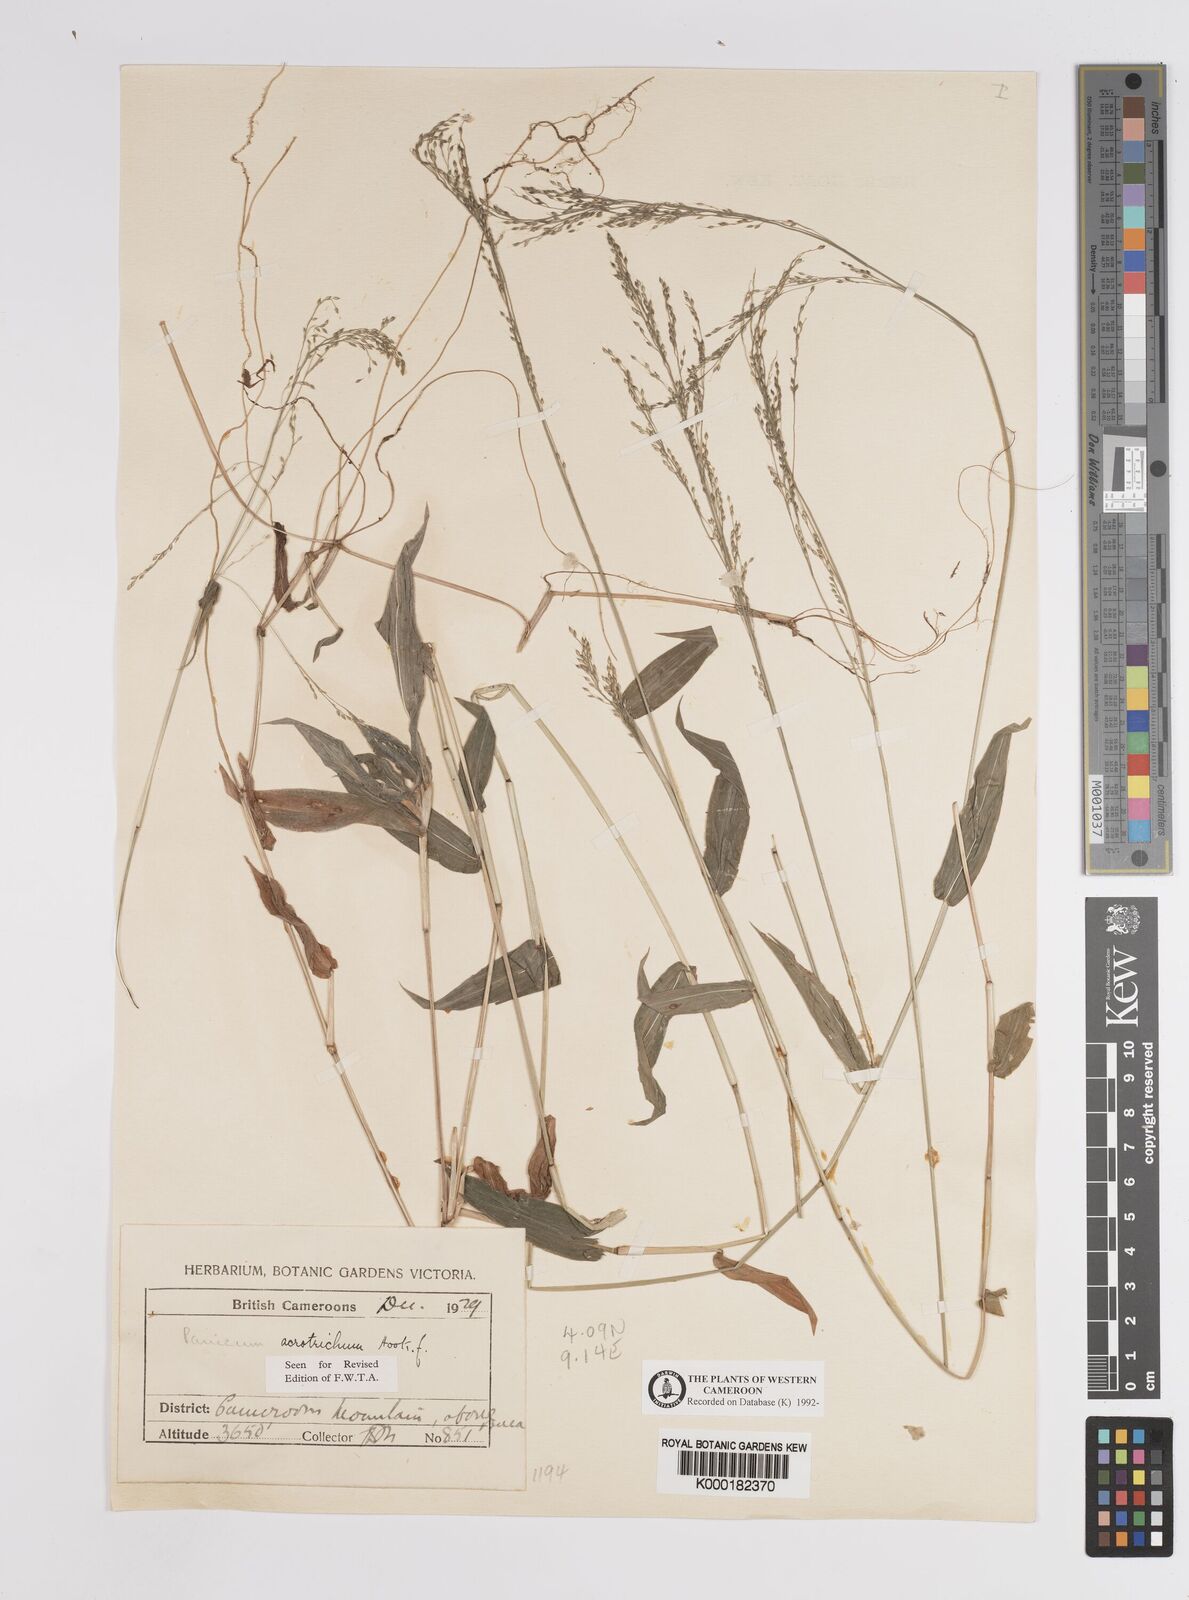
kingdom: Plantae
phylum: Tracheophyta
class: Liliopsida
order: Poales
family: Poaceae
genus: Panicum
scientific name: Panicum acrotrichum
